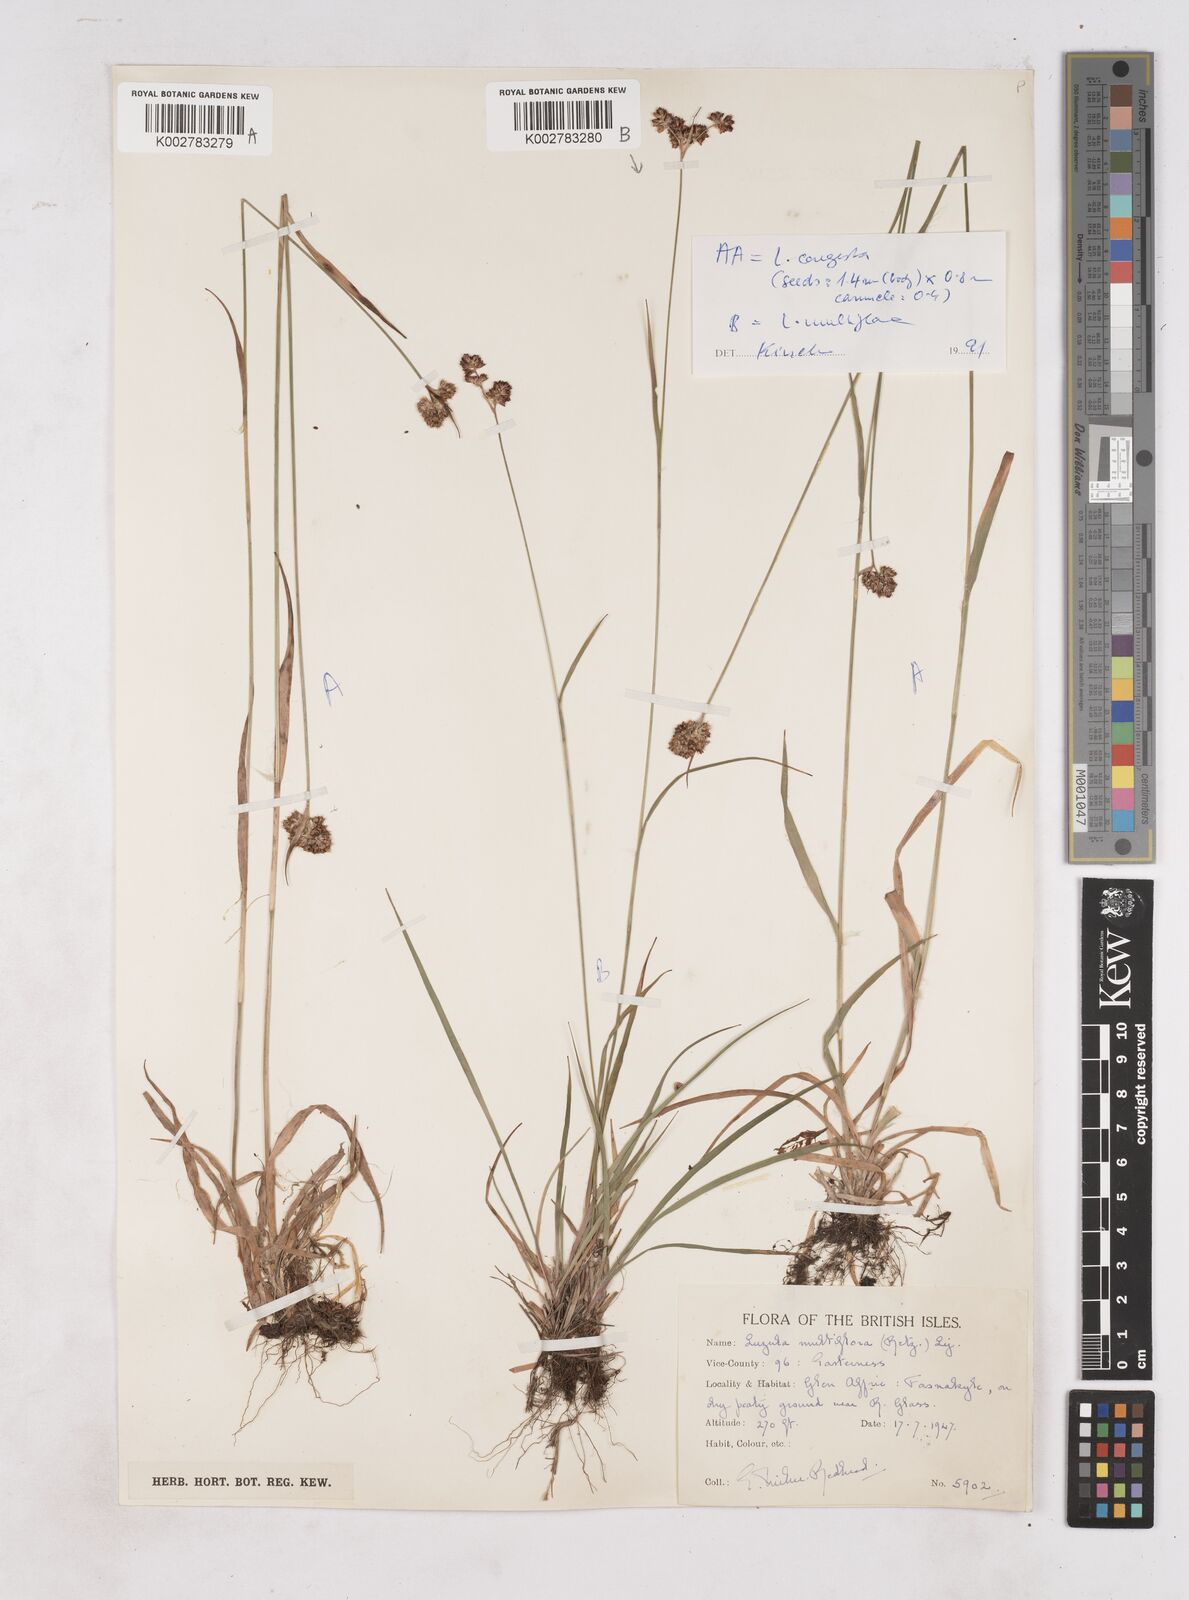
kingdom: Plantae
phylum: Tracheophyta
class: Liliopsida
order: Poales
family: Juncaceae
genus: Luzula
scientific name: Luzula multiflora
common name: Heath wood-rush
